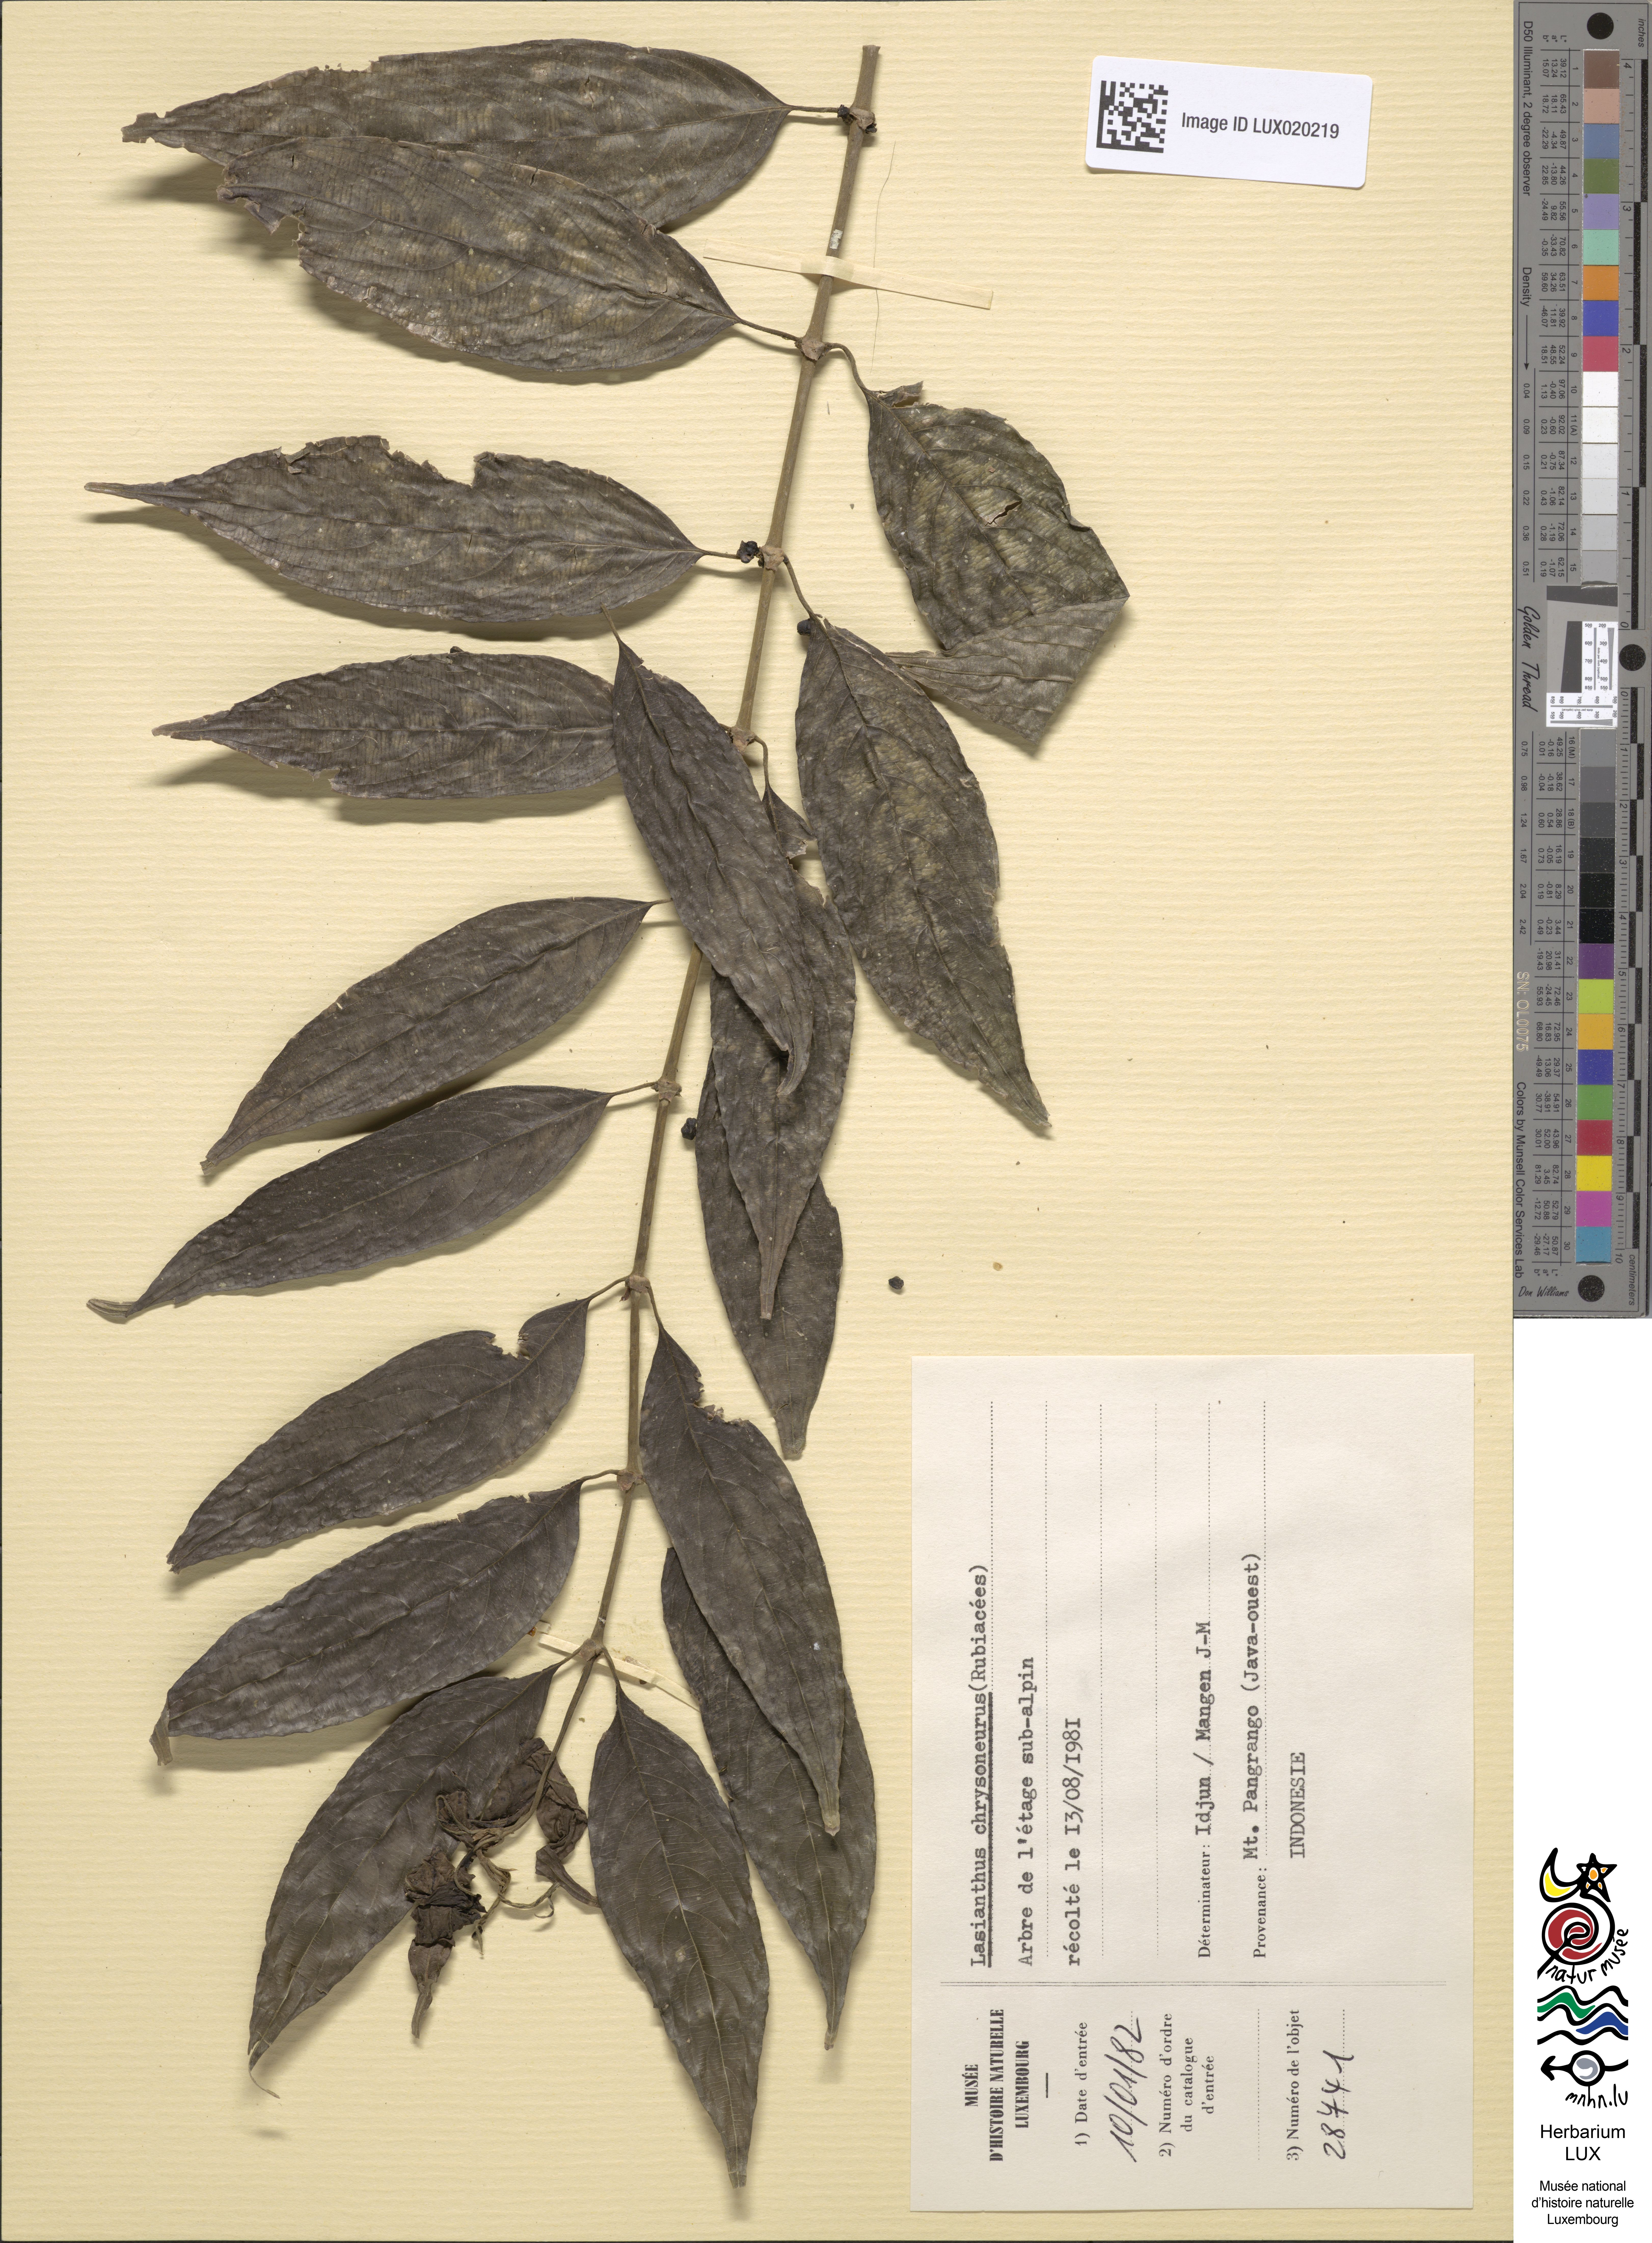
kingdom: Plantae
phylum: Tracheophyta
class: Magnoliopsida
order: Gentianales
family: Rubiaceae
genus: Lasianthus
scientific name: Lasianthus chrysoneurus
